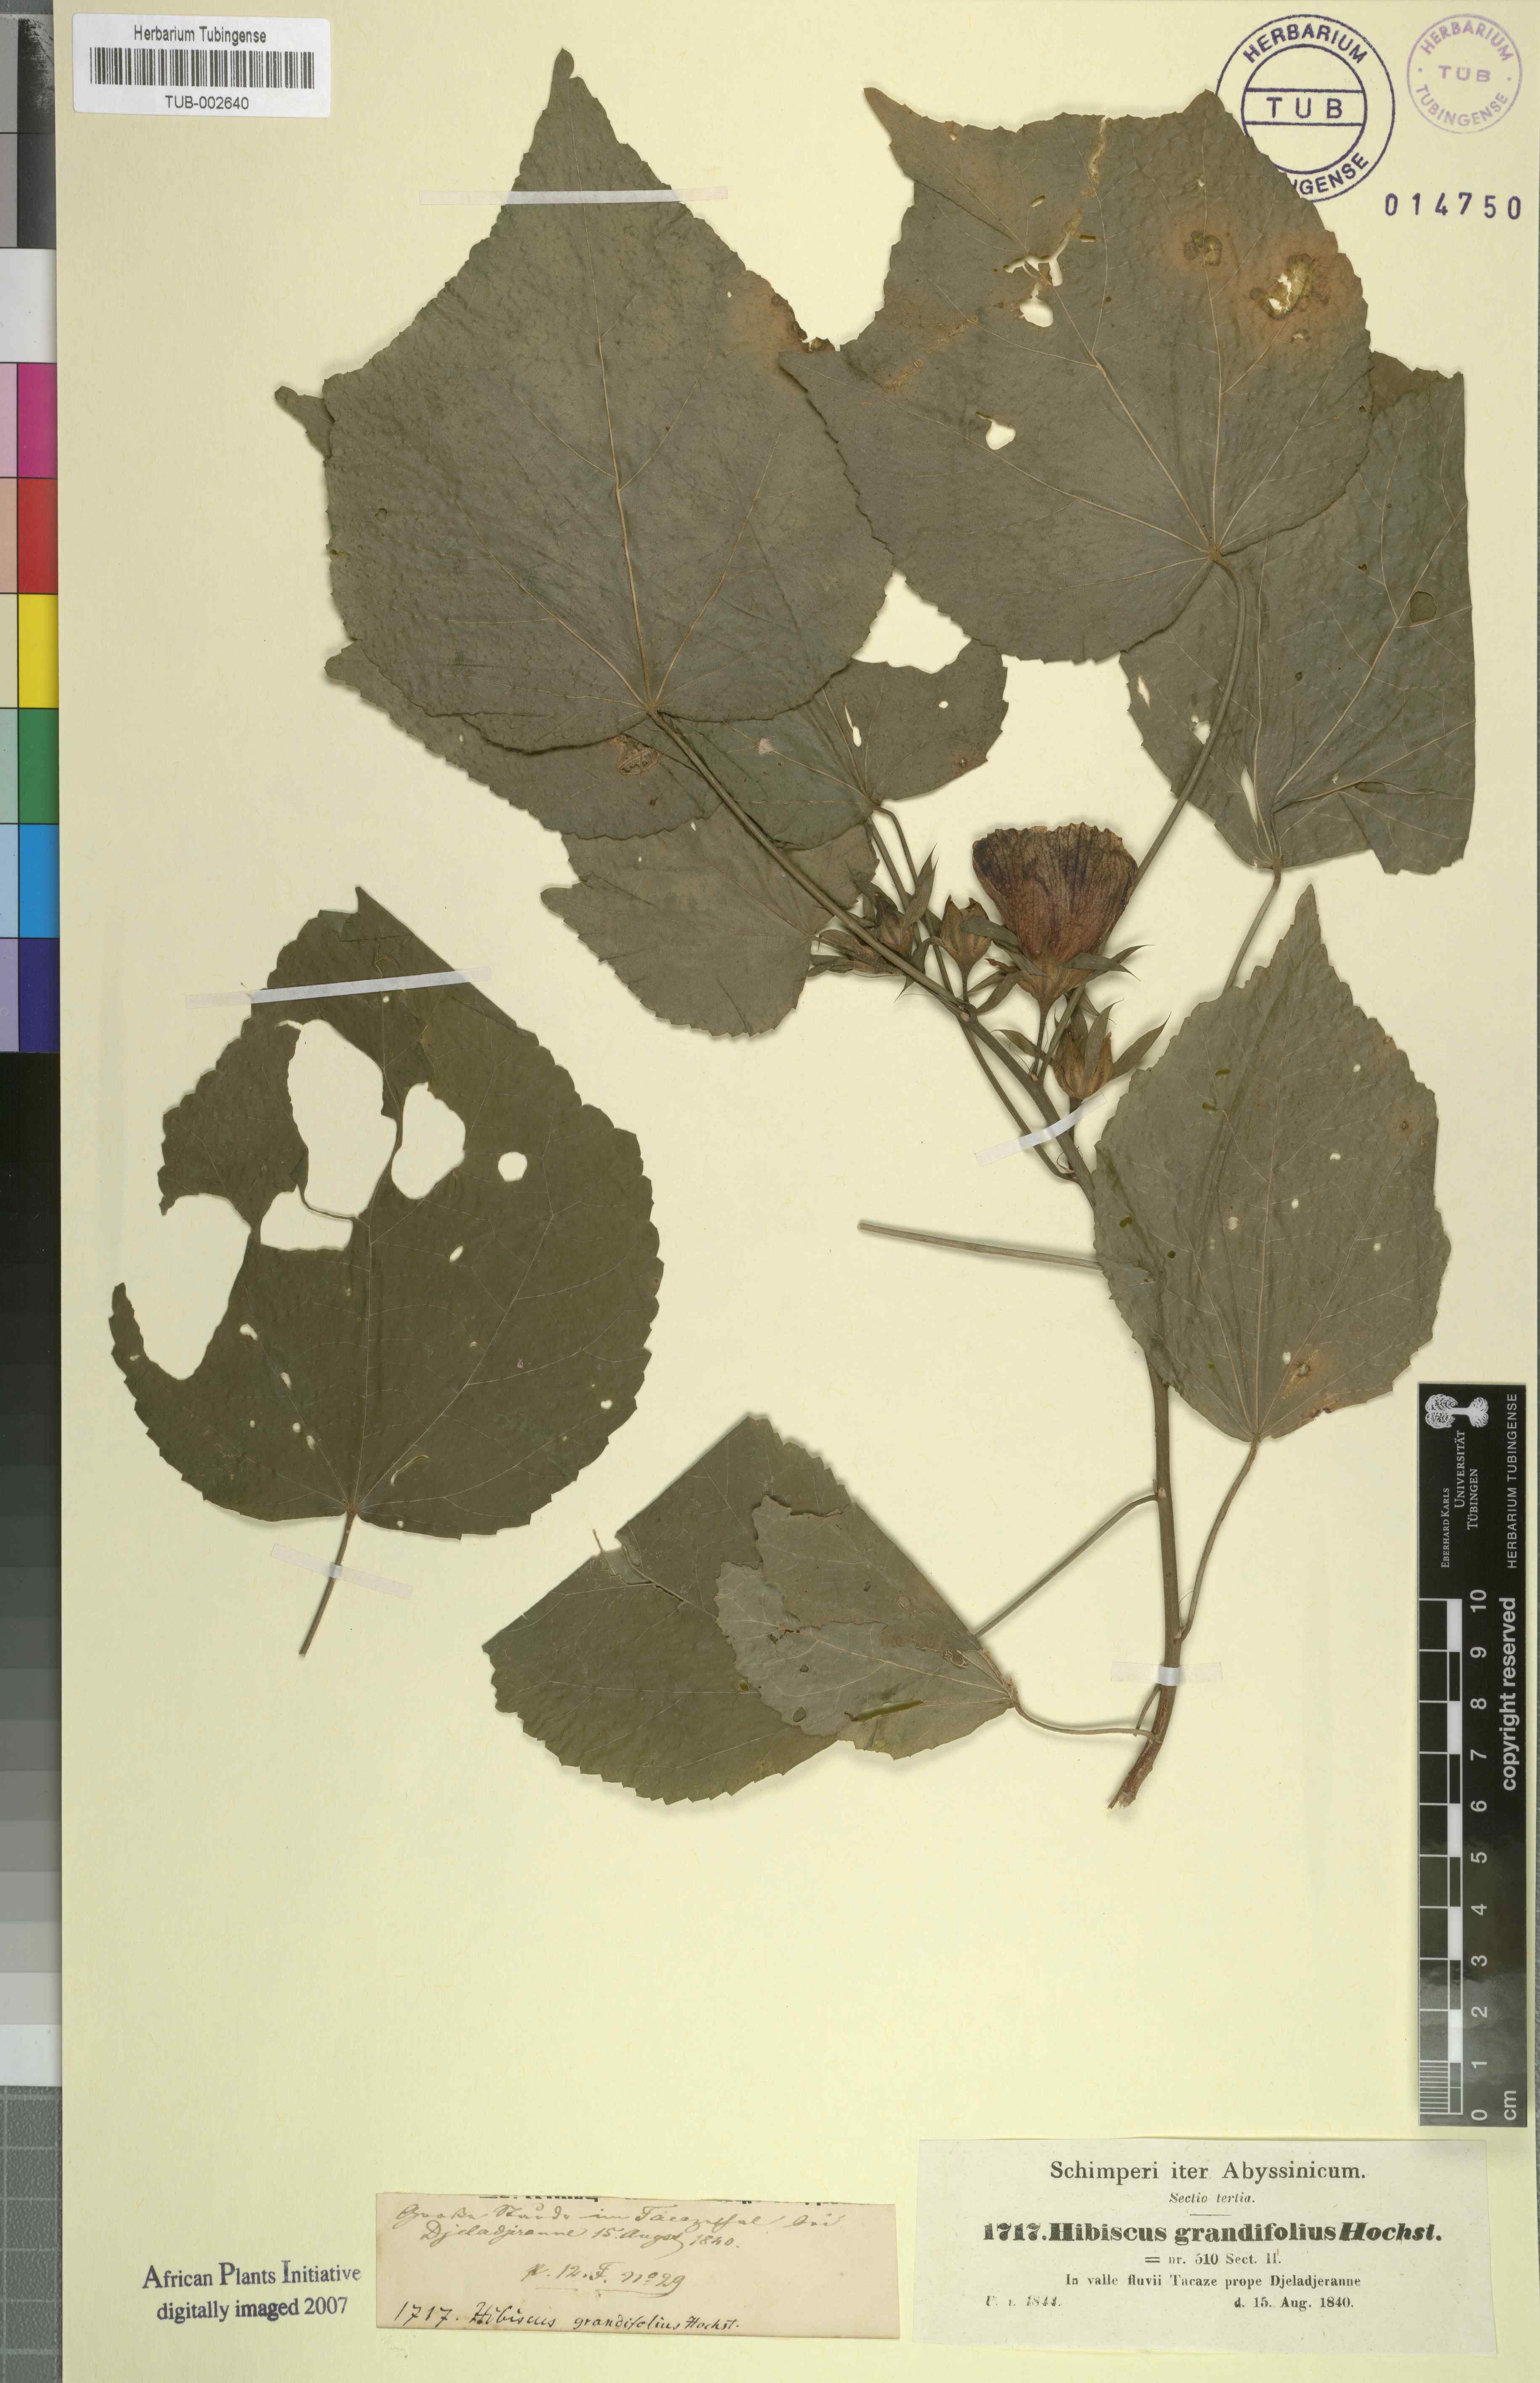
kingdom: Plantae
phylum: Tracheophyta
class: Magnoliopsida
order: Malvales
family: Malvaceae
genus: Hibiscus
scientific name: Hibiscus calyphyllus
